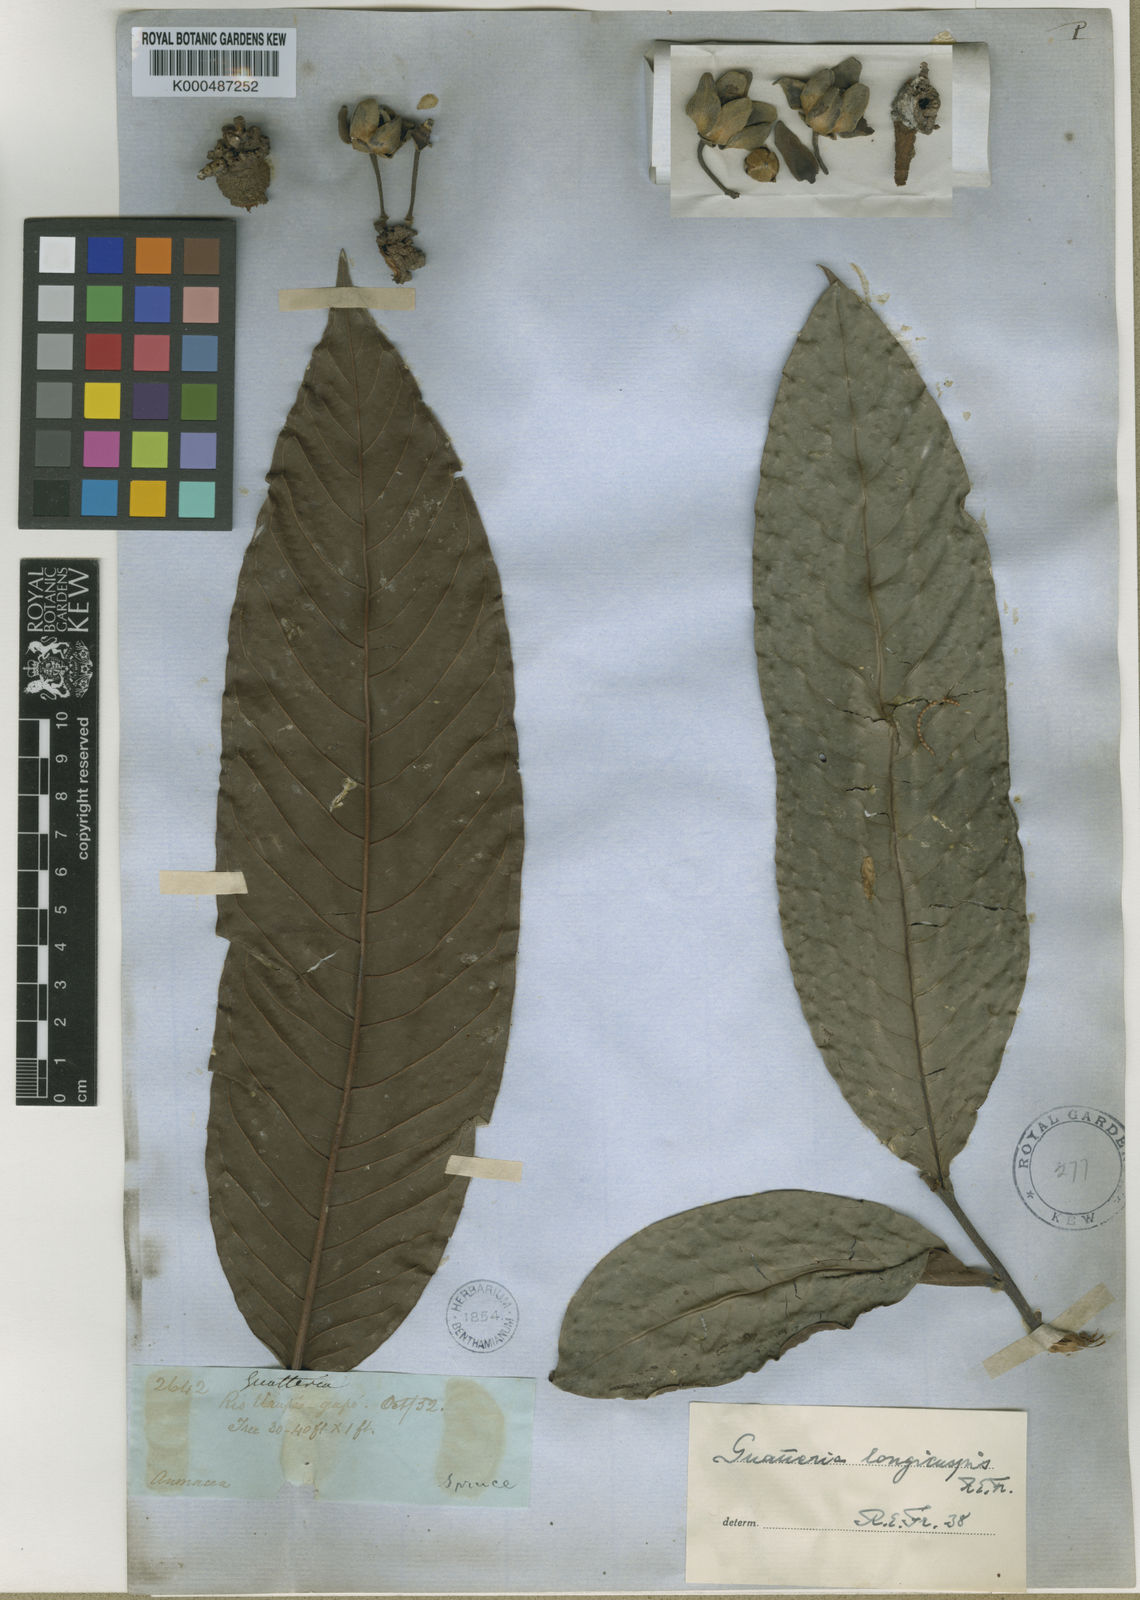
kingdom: Plantae
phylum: Tracheophyta
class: Magnoliopsida
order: Magnoliales
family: Annonaceae
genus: Guatteria
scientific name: Guatteria longicuspis
